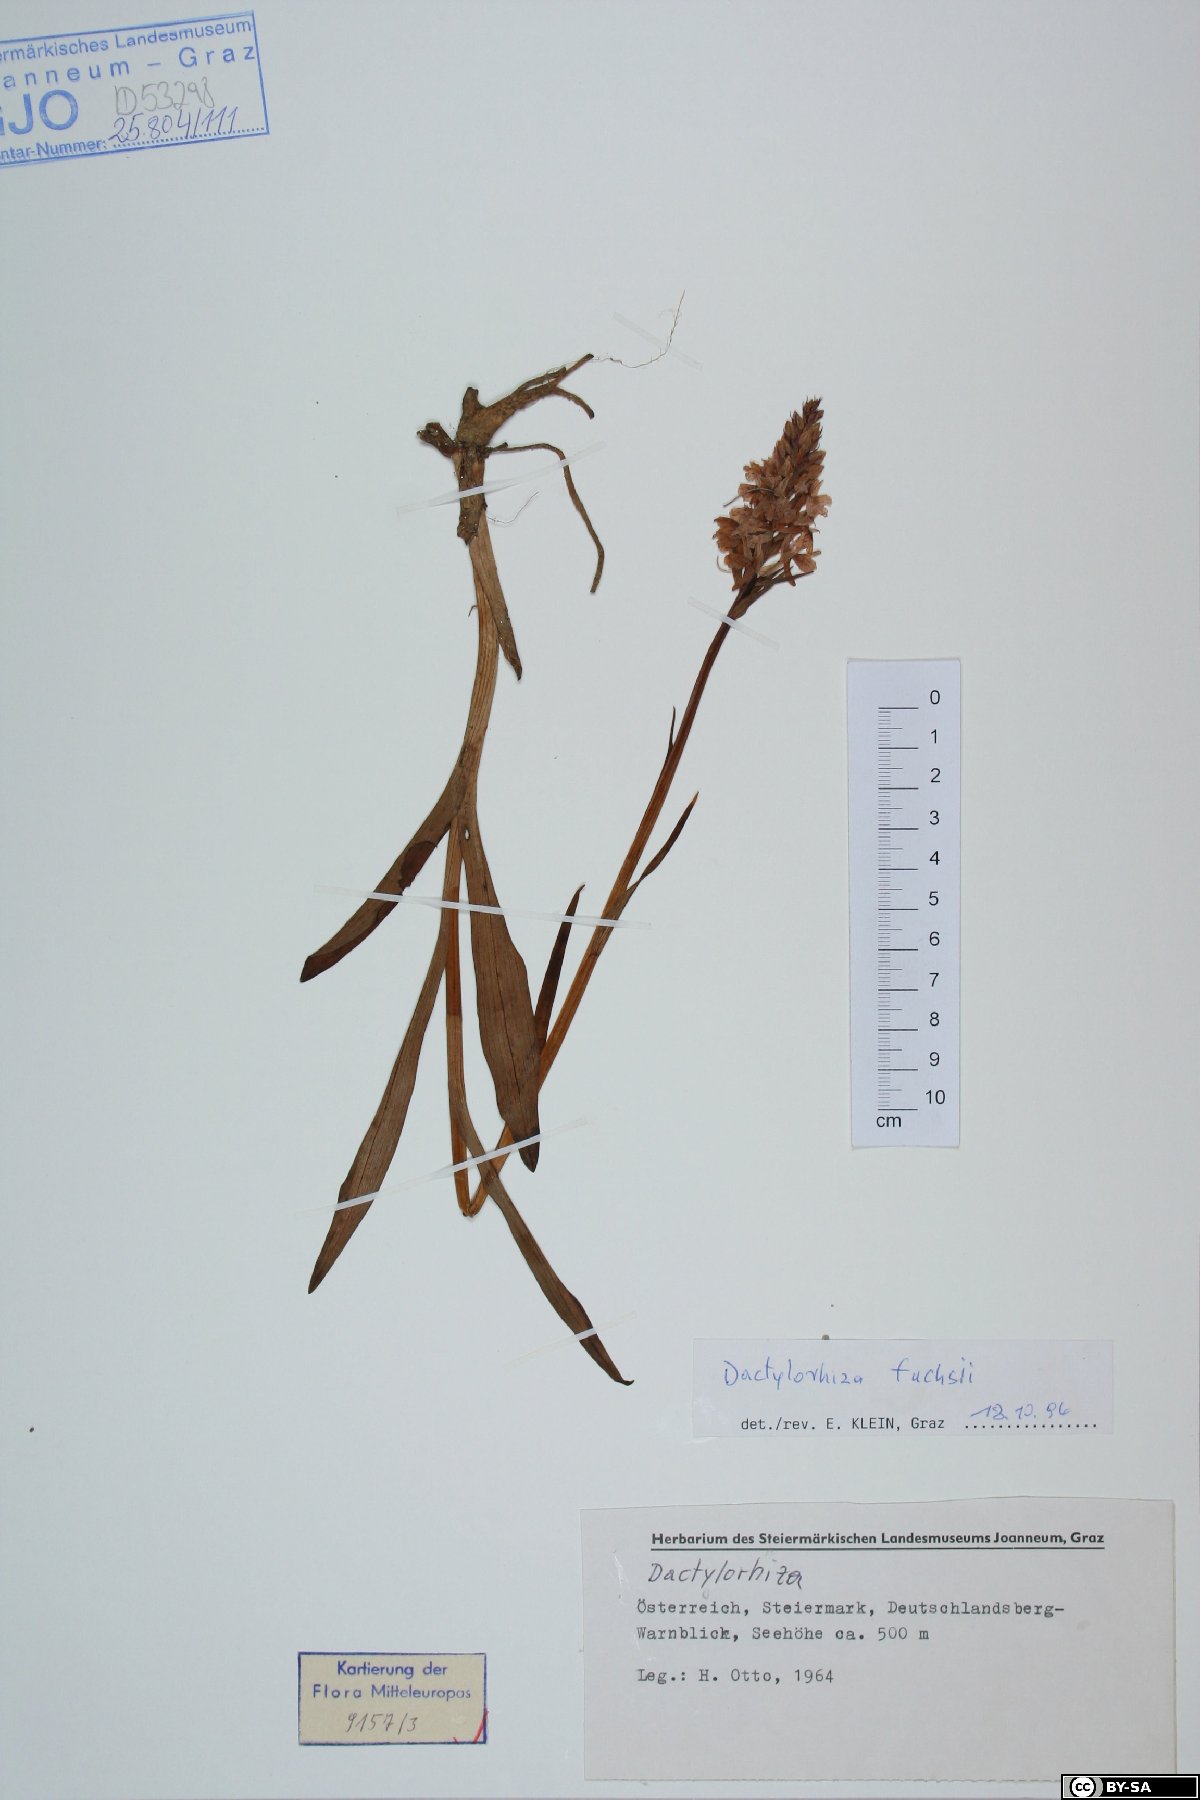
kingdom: Plantae
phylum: Tracheophyta
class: Liliopsida
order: Asparagales
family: Orchidaceae
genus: Dactylorhiza
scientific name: Dactylorhiza maculata
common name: Heath spotted-orchid
